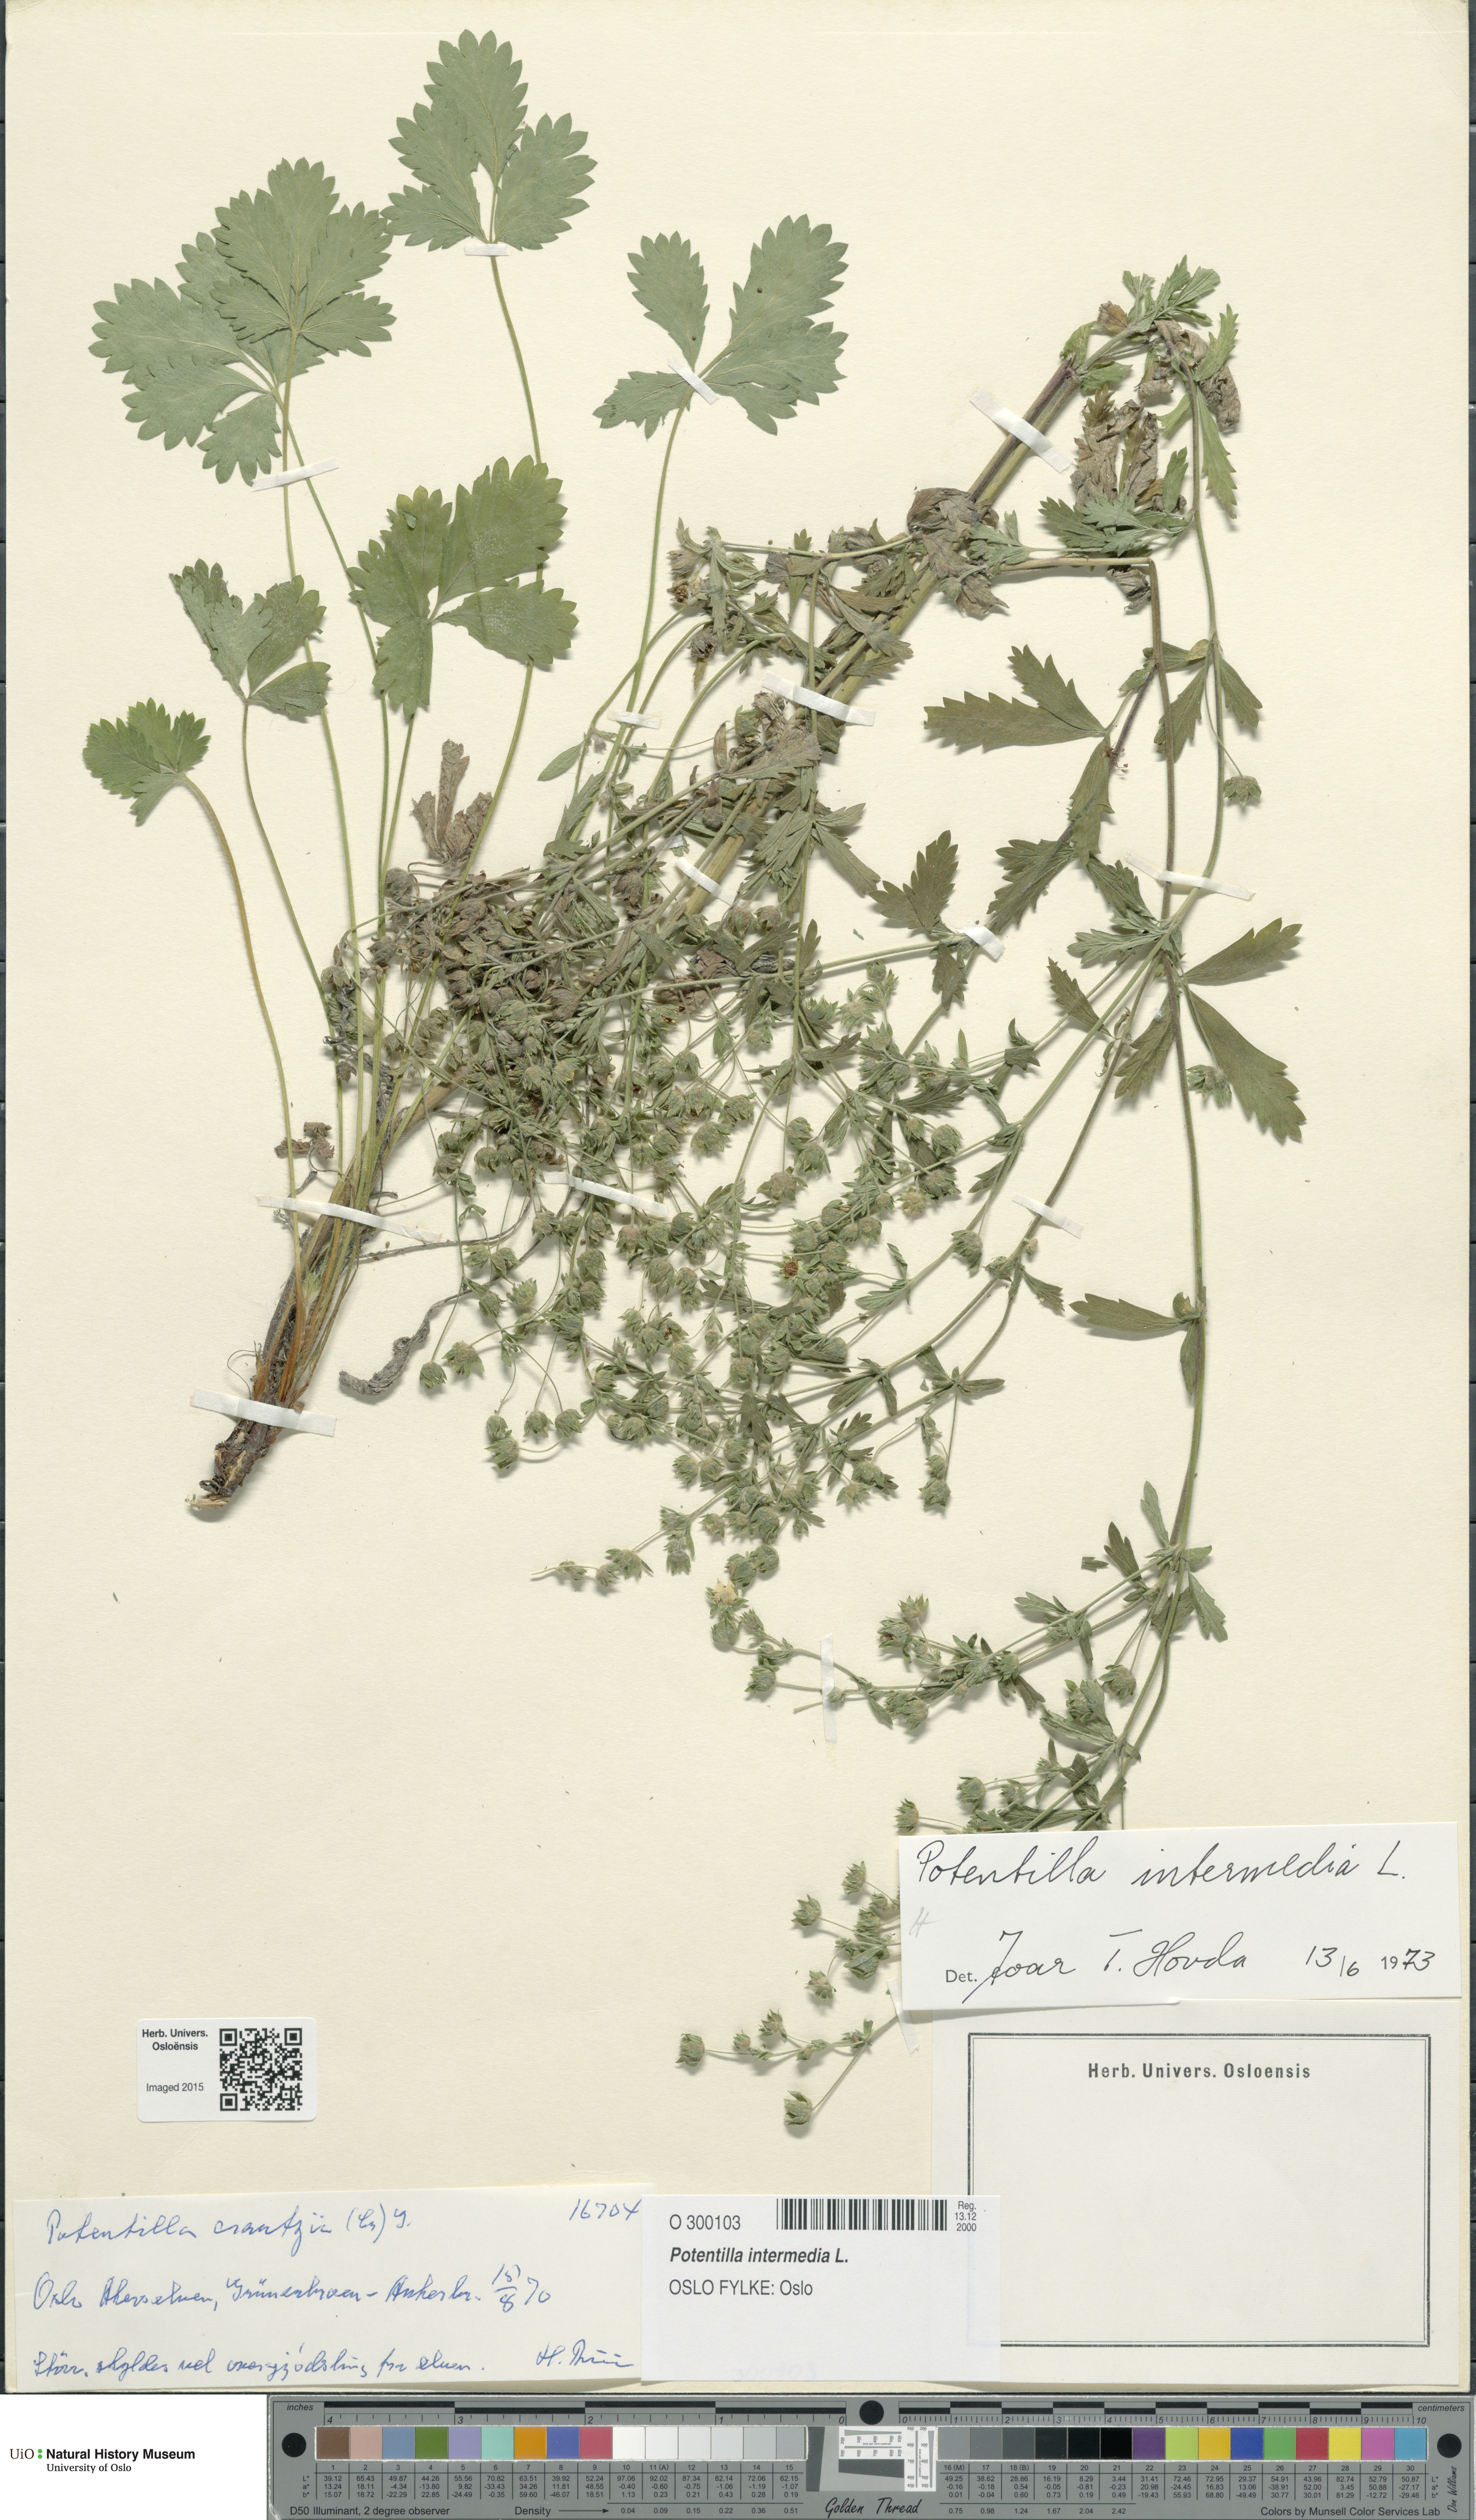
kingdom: Plantae
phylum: Tracheophyta
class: Magnoliopsida
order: Rosales
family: Rosaceae
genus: Potentilla
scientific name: Potentilla intermedia
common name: Downy cinquefoil
